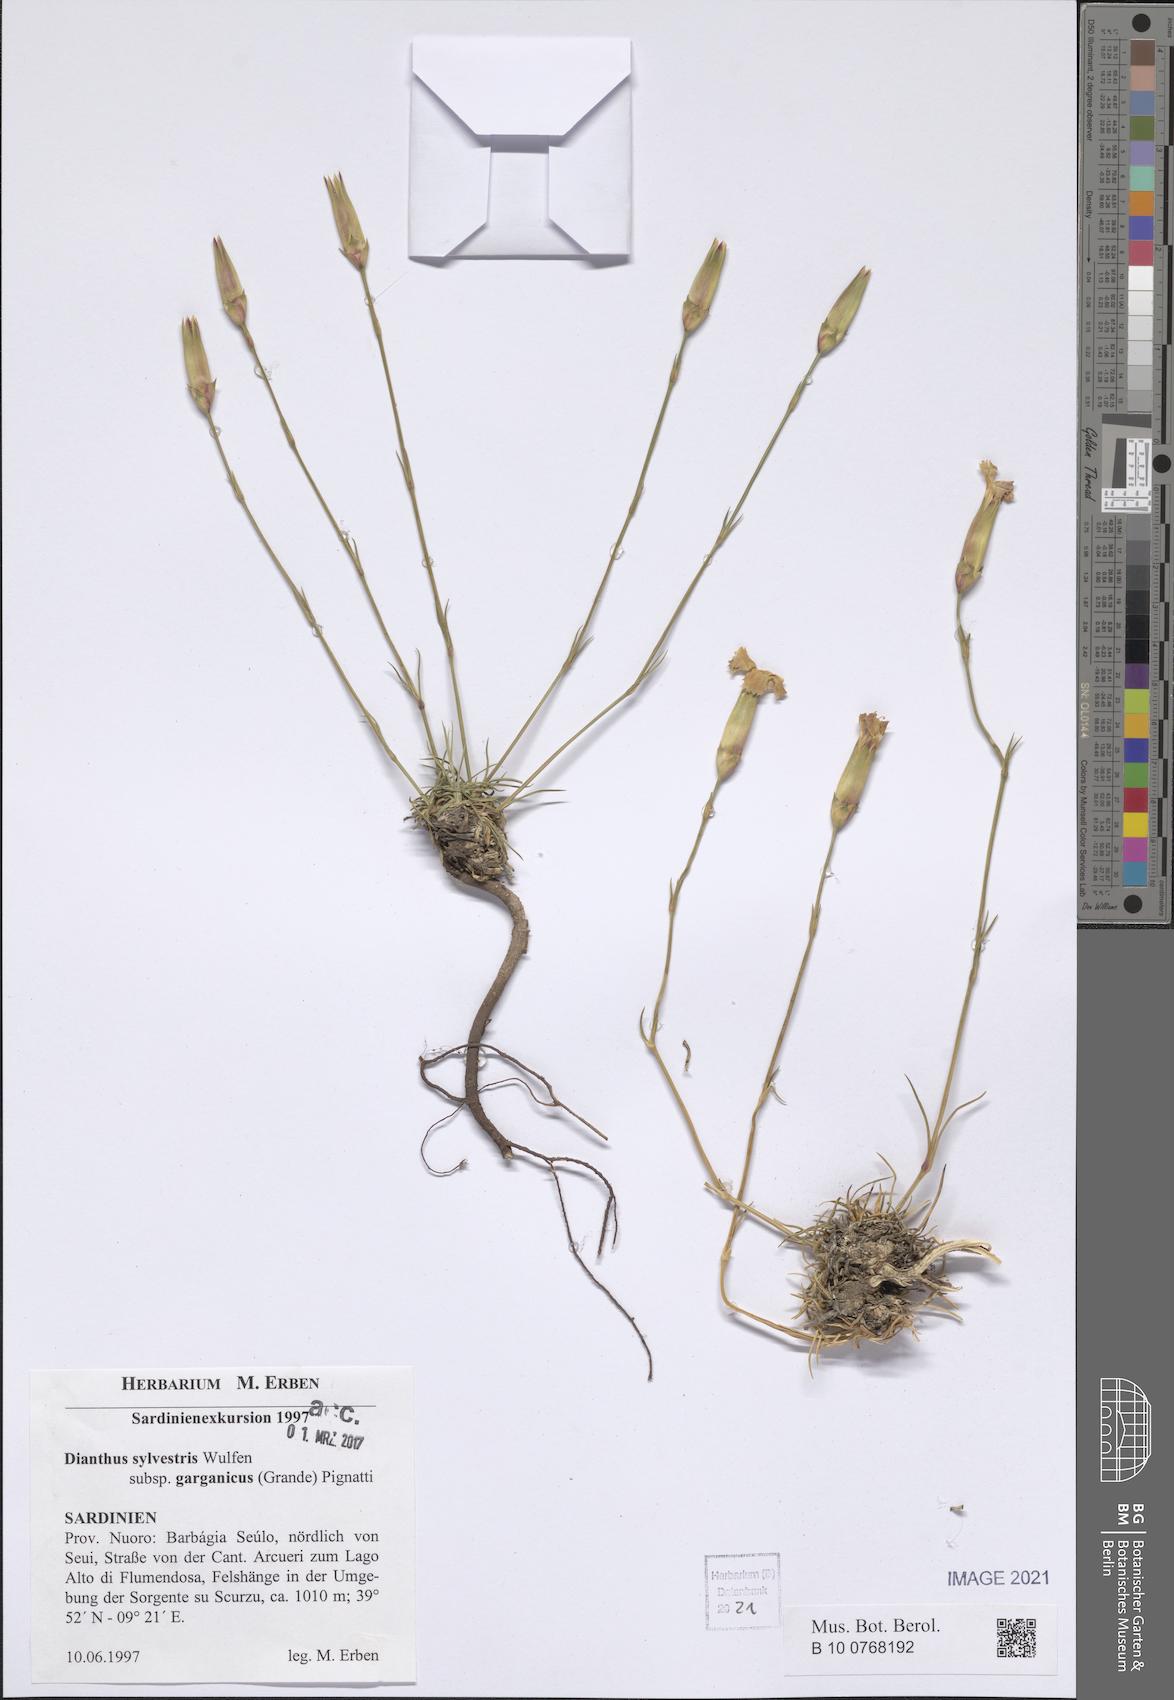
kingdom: Plantae
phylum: Tracheophyta
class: Magnoliopsida
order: Caryophyllales
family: Caryophyllaceae
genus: Dianthus
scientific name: Dianthus tarentinus
